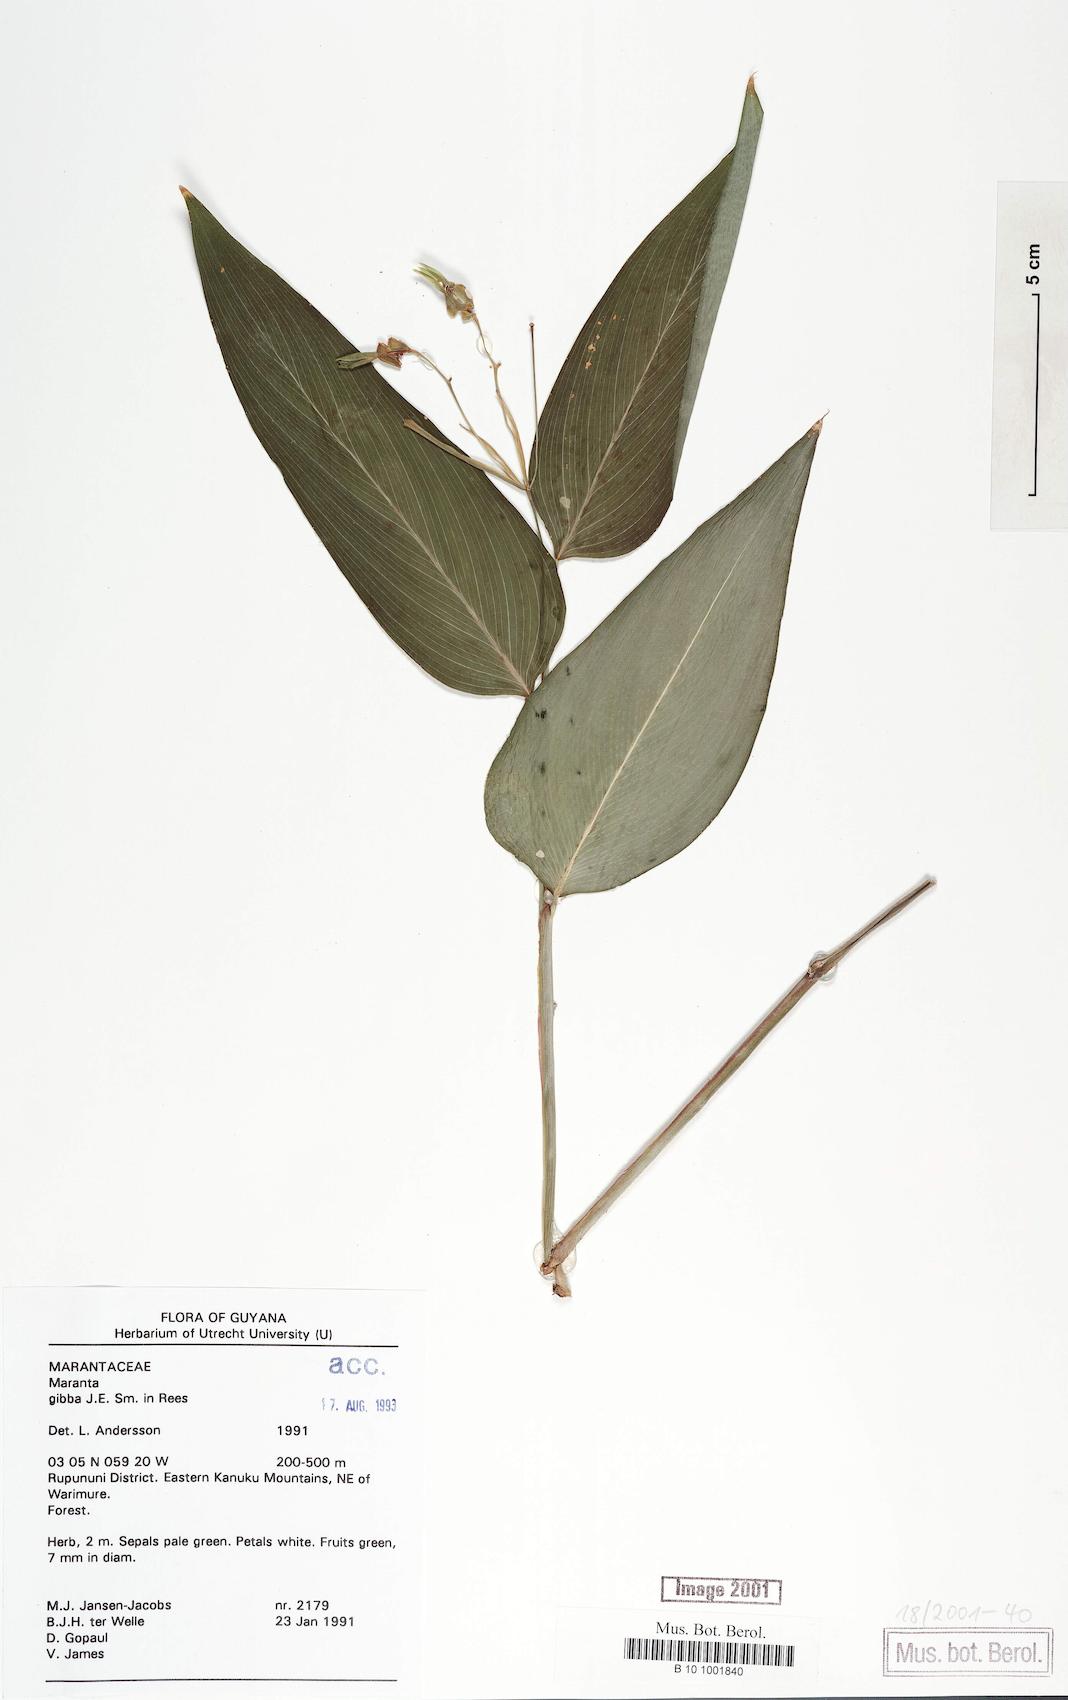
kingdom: Plantae
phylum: Tracheophyta
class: Liliopsida
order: Zingiberales
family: Marantaceae
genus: Maranta
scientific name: Maranta gibba
